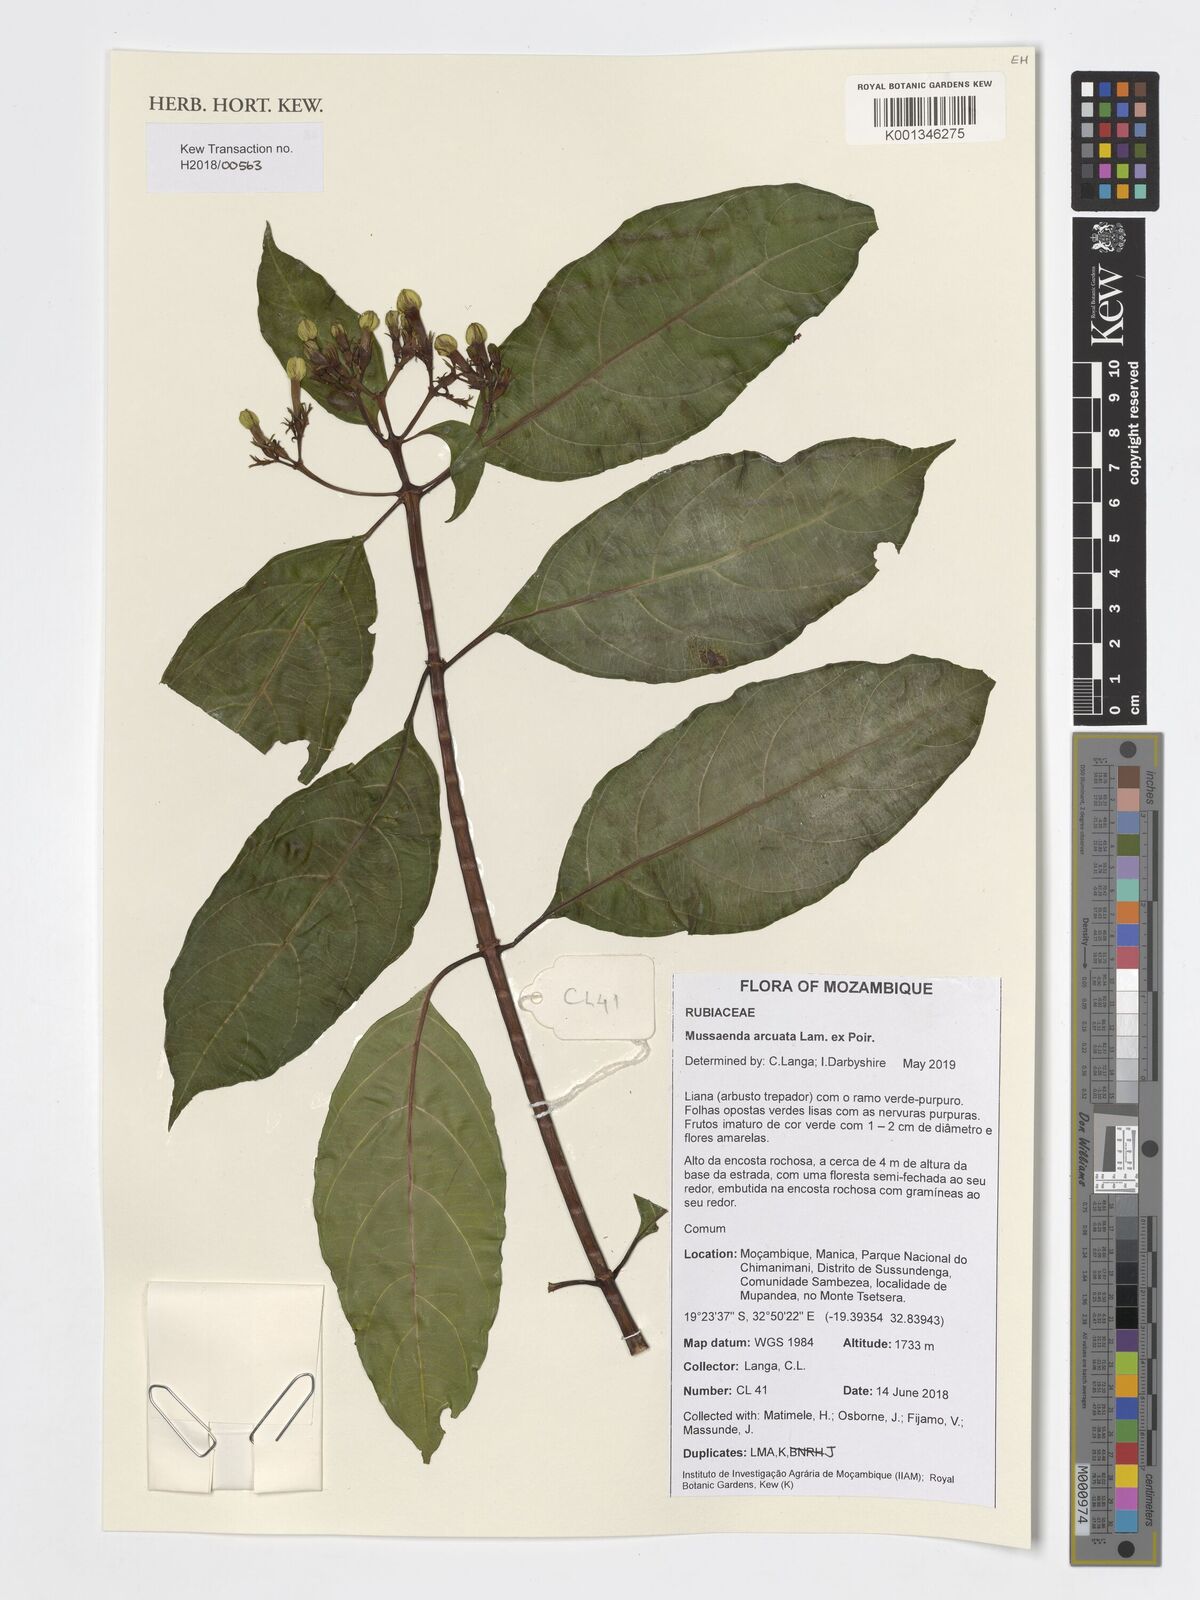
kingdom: Plantae
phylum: Tracheophyta
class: Magnoliopsida
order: Gentianales
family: Rubiaceae
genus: Mussaenda
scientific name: Mussaenda arcuata
